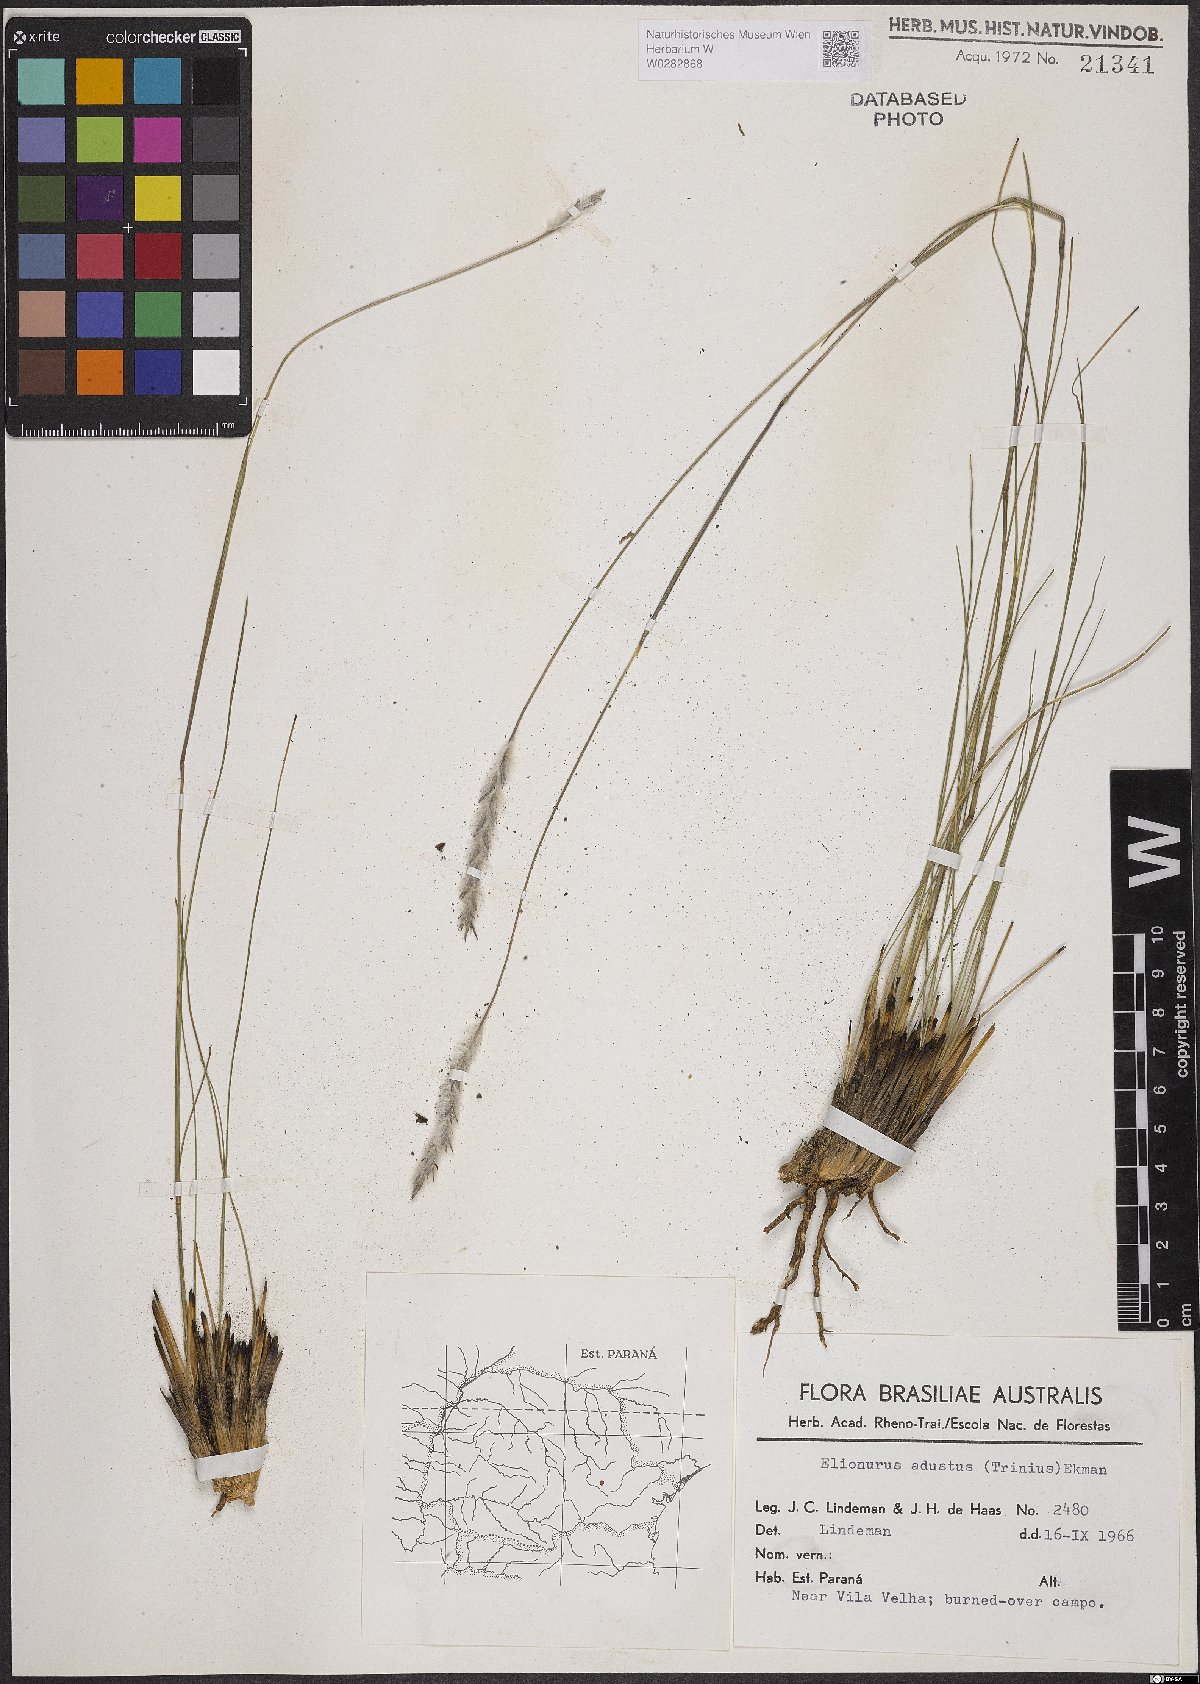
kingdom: Plantae
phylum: Tracheophyta
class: Liliopsida
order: Poales
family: Poaceae
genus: Elionurus
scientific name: Elionurus muticus
